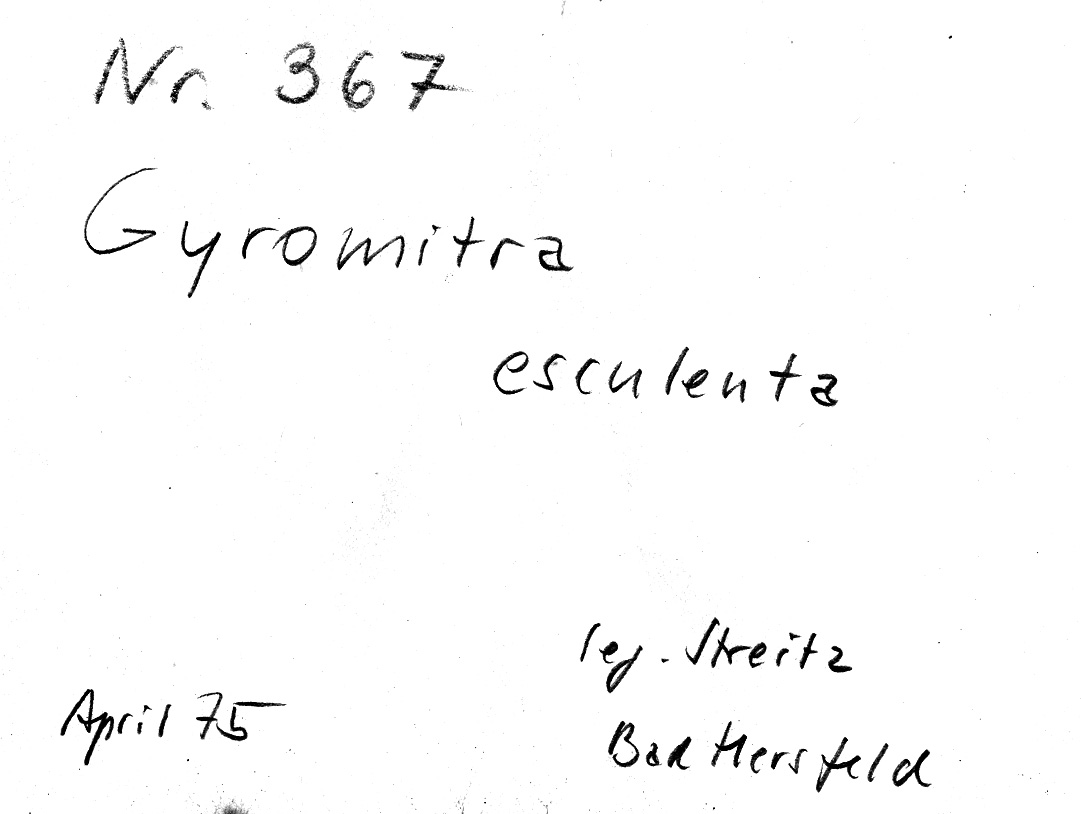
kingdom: Fungi
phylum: Ascomycota
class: Pezizomycetes
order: Pezizales
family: Discinaceae
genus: Gyromitra
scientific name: Gyromitra esculenta
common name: False morel
